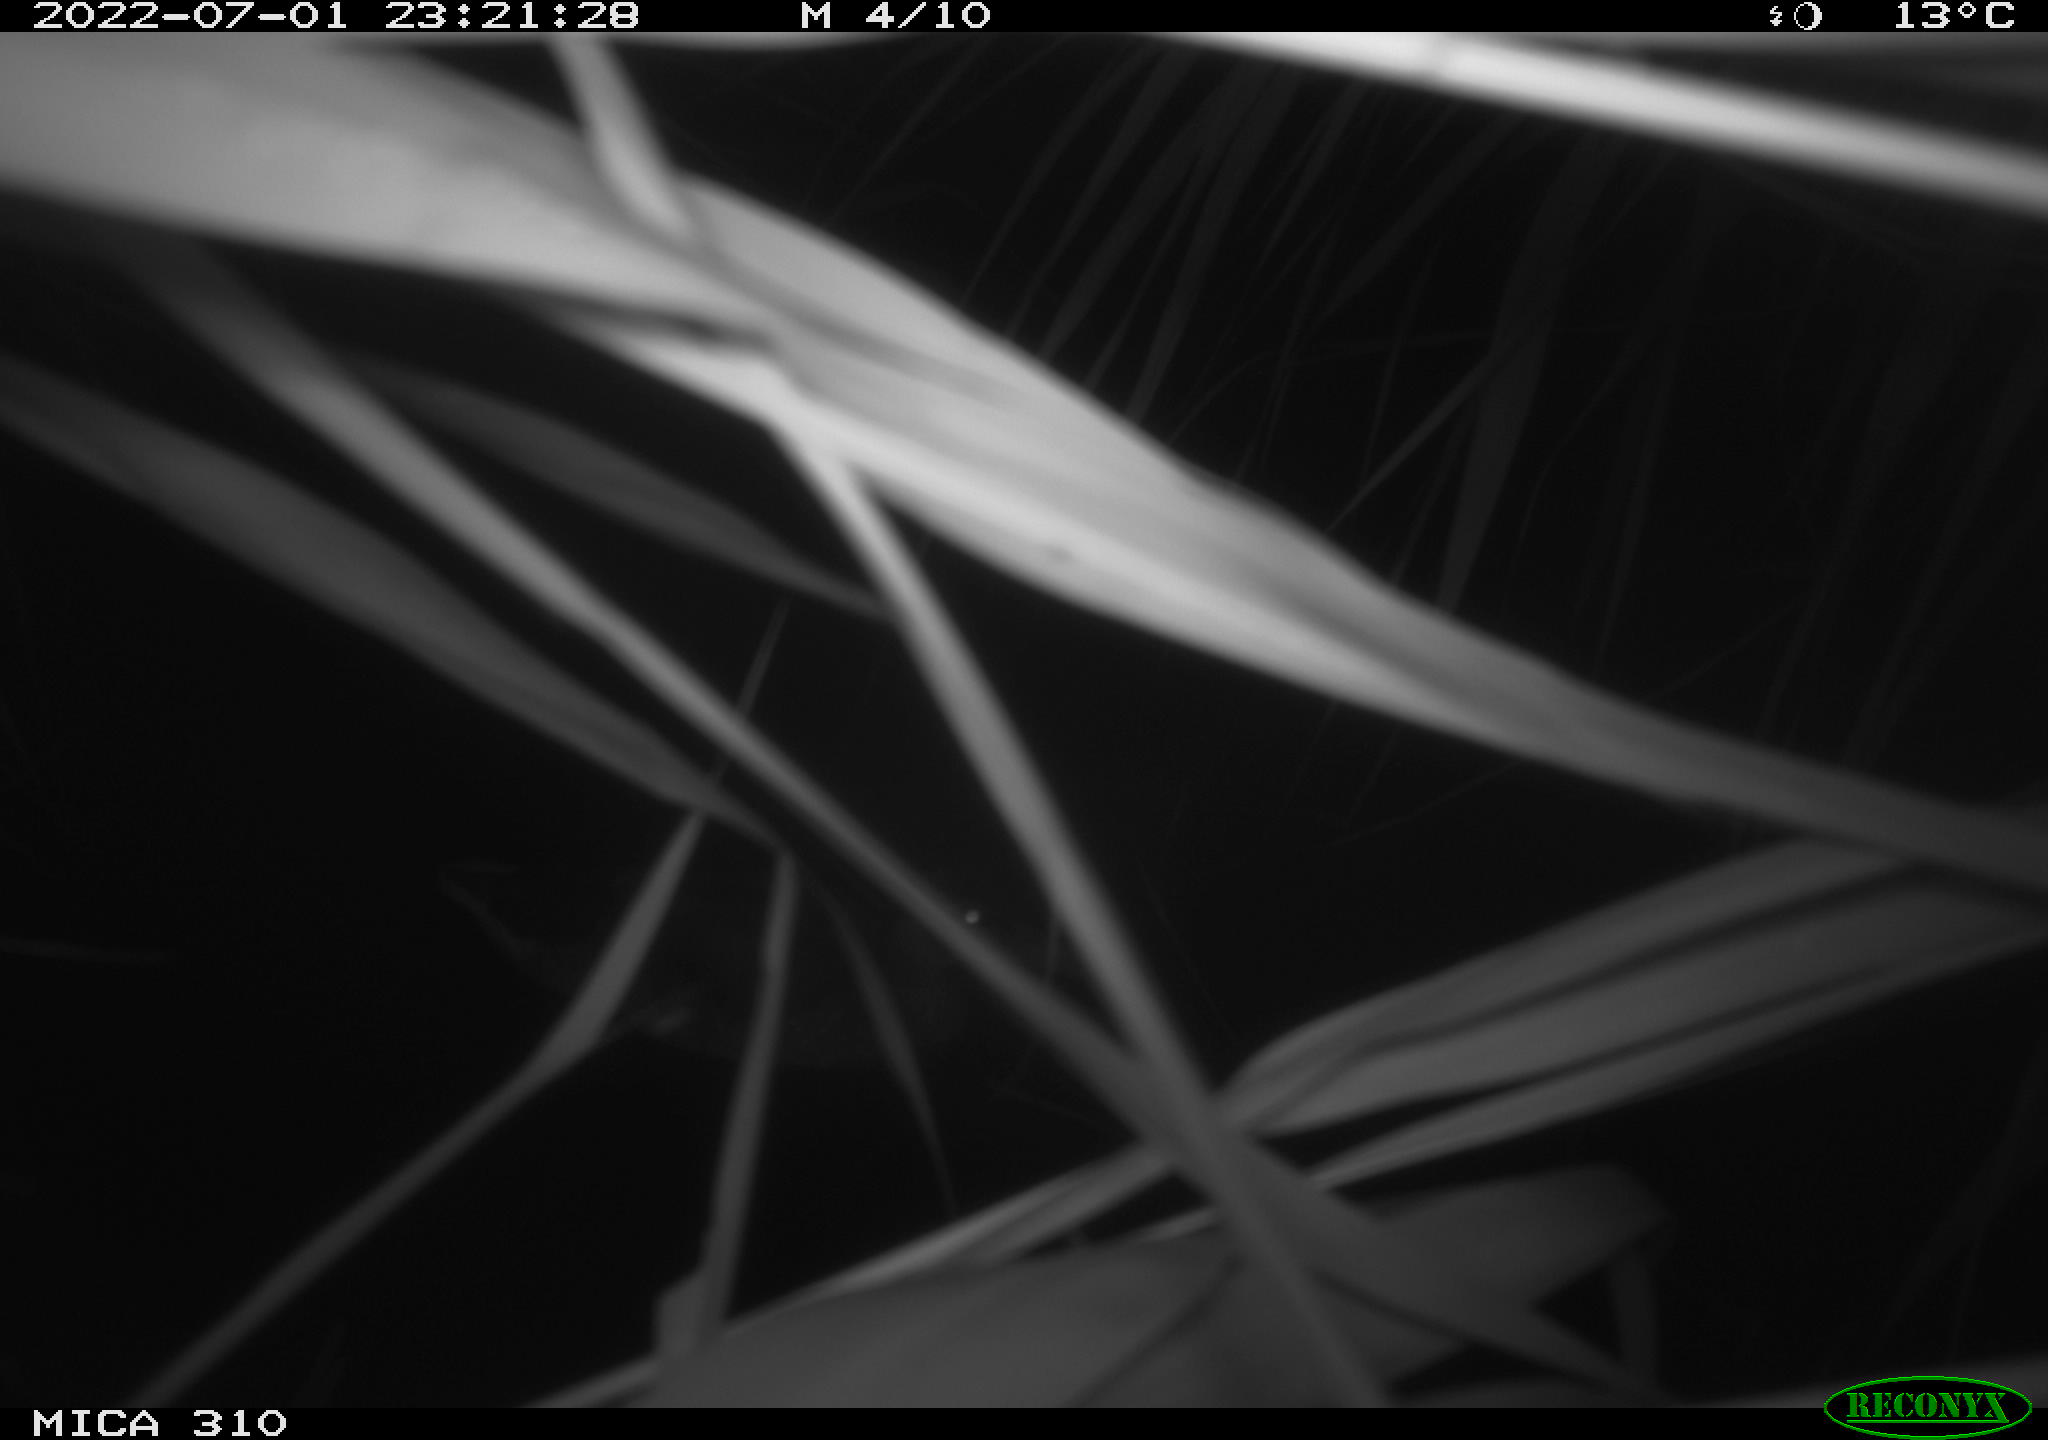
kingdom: Animalia
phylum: Chordata
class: Aves
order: Anseriformes
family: Anatidae
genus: Anas
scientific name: Anas platyrhynchos
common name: Mallard
